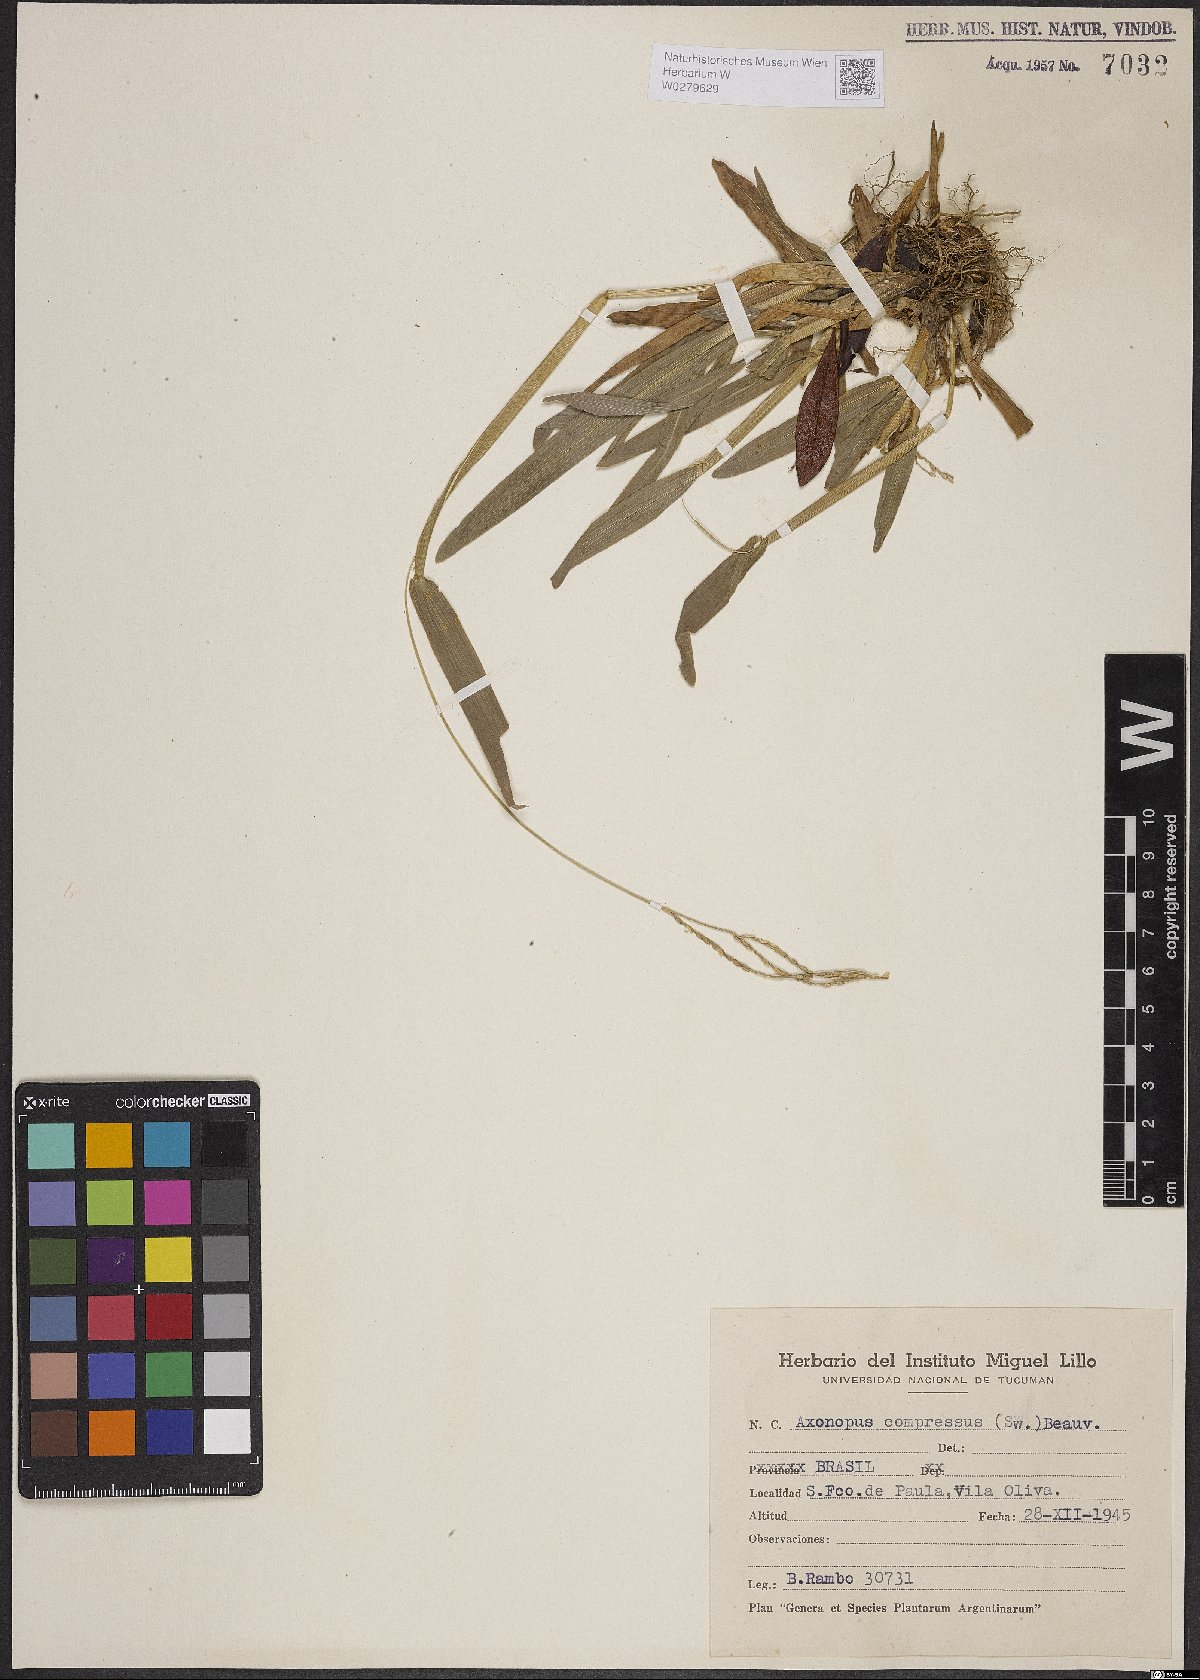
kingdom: Plantae
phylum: Tracheophyta
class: Liliopsida
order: Poales
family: Poaceae
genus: Axonopus
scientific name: Axonopus compressus
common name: American carpet grass
